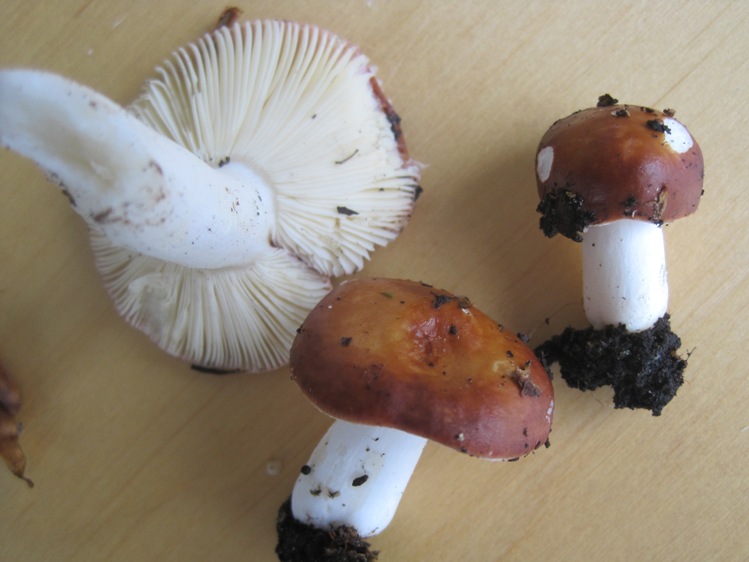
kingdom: Fungi
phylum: Basidiomycota
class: Agaricomycetes
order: Russulales
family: Russulaceae
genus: Russula
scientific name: Russula velenovskyi
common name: orangerød skørhat
